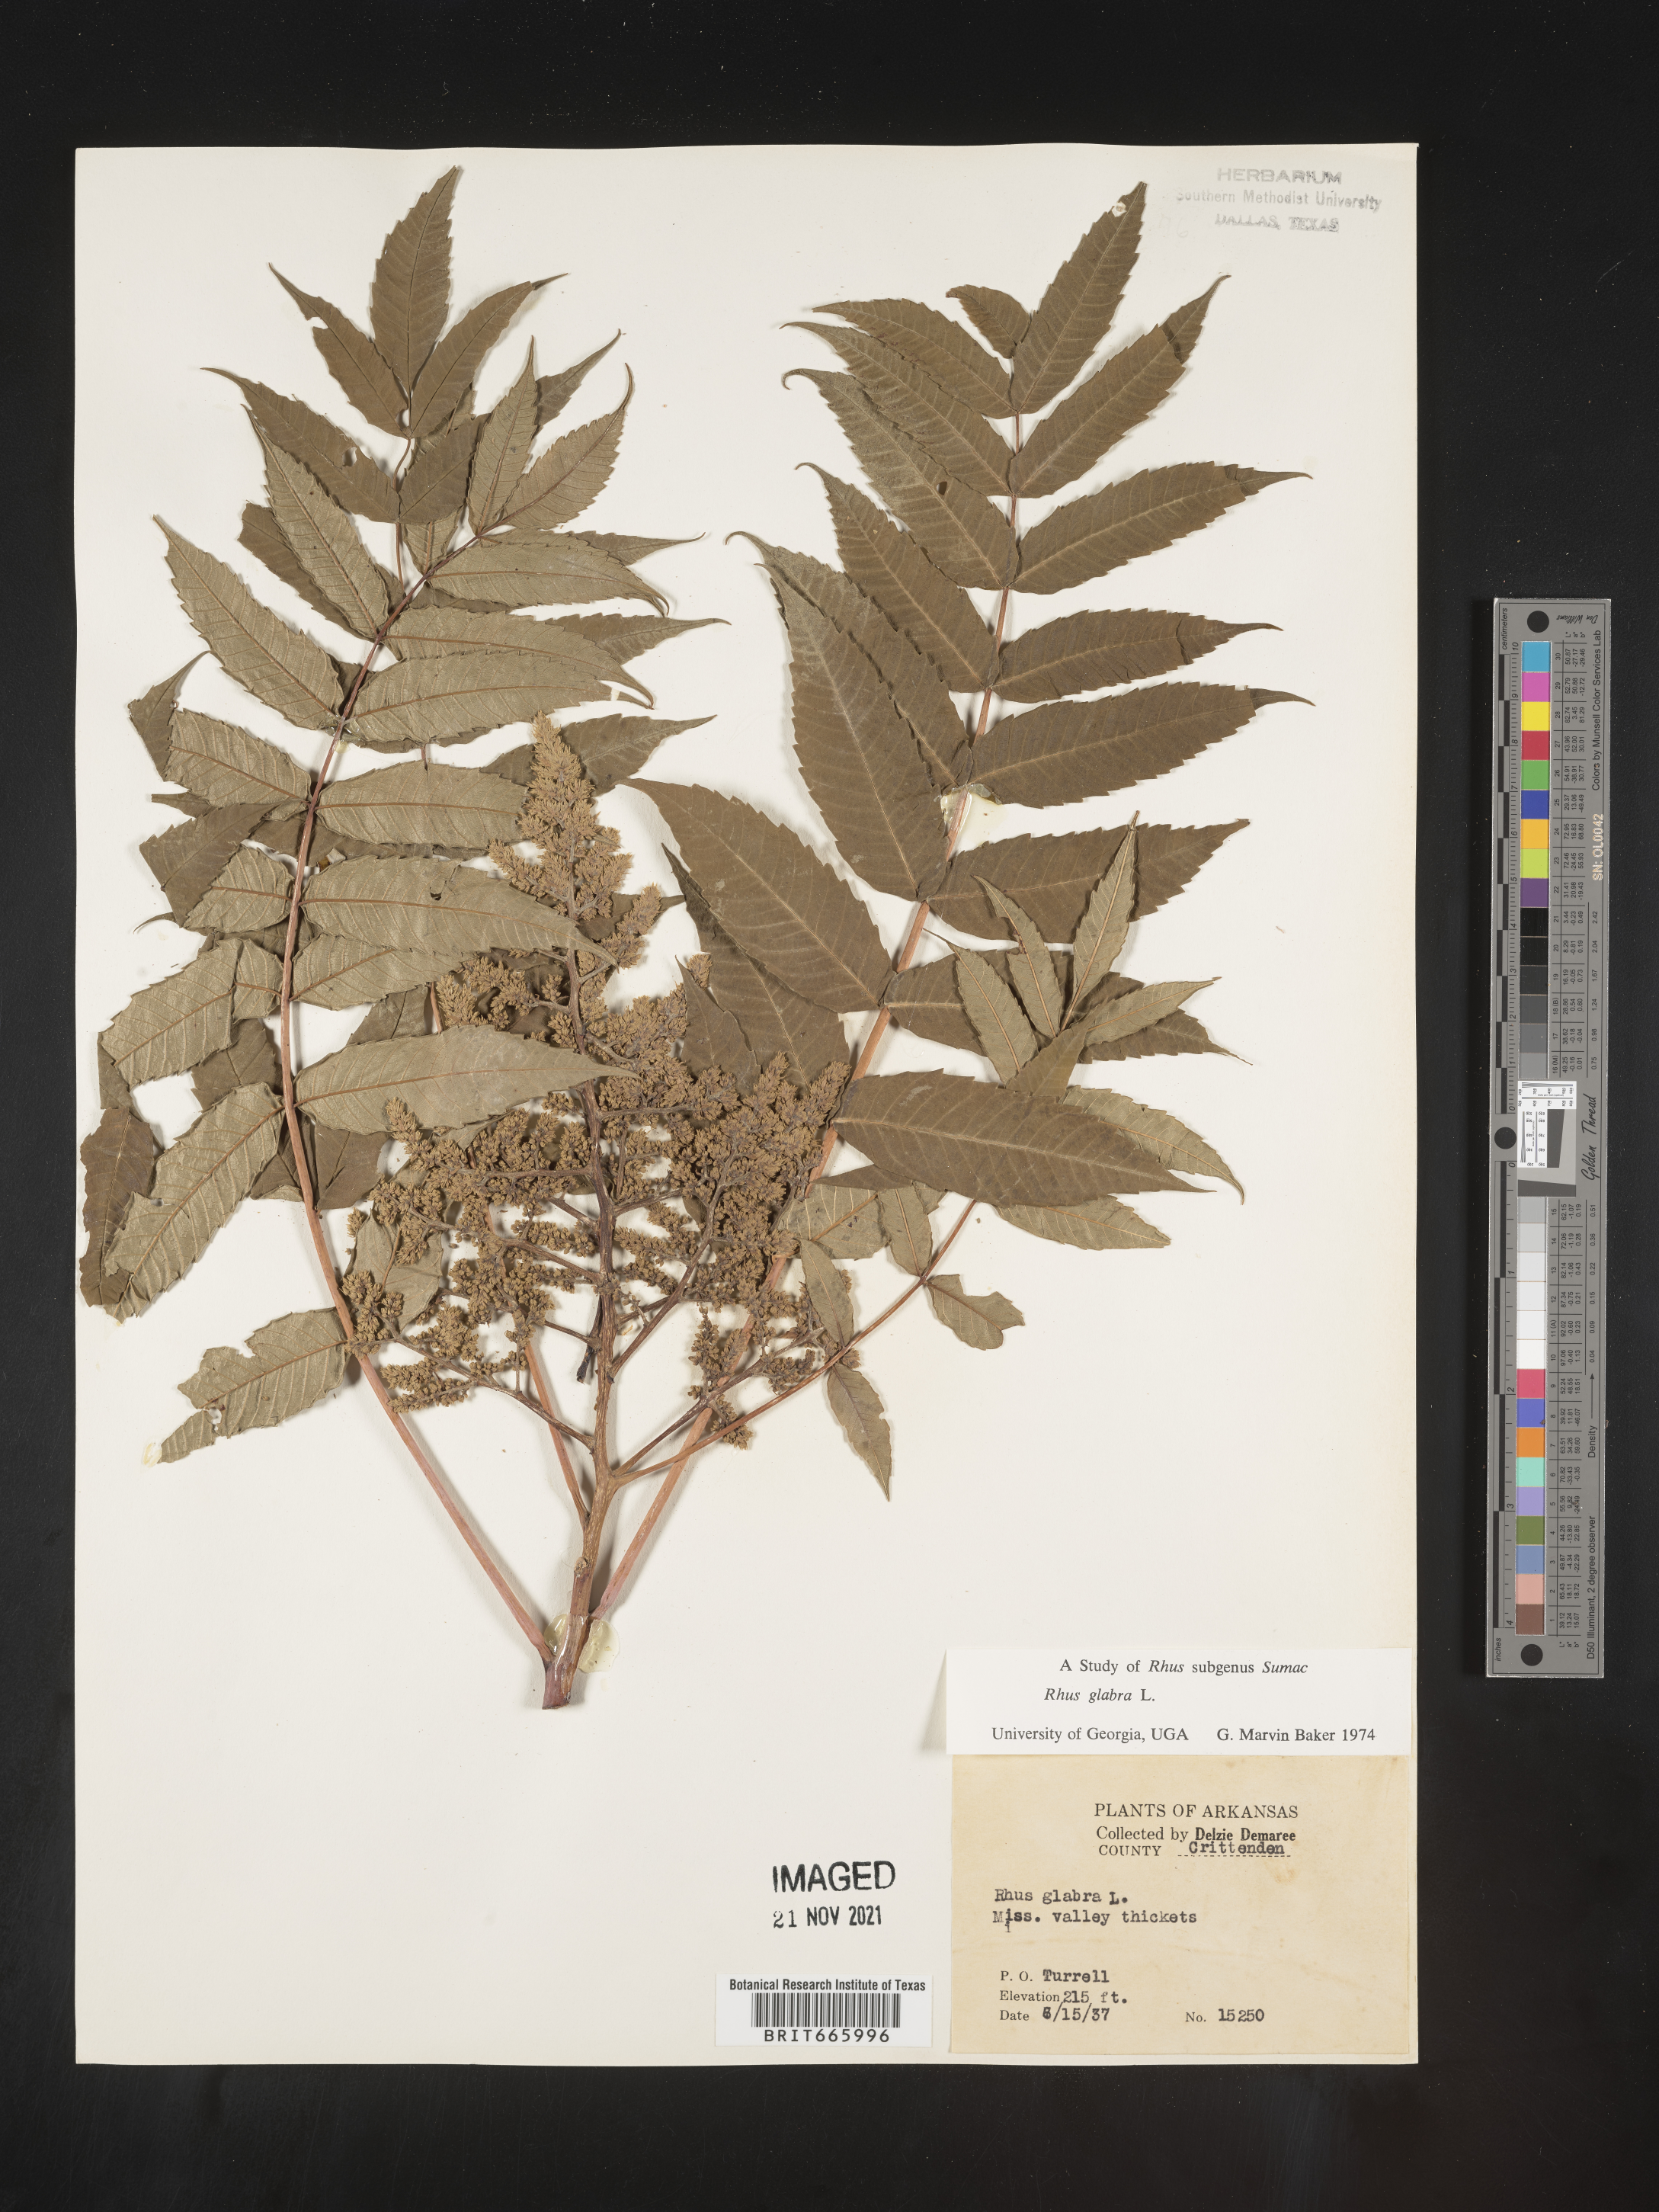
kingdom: Plantae
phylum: Tracheophyta
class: Magnoliopsida
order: Sapindales
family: Anacardiaceae
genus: Rhus
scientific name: Rhus glabra
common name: Scarlet sumac
